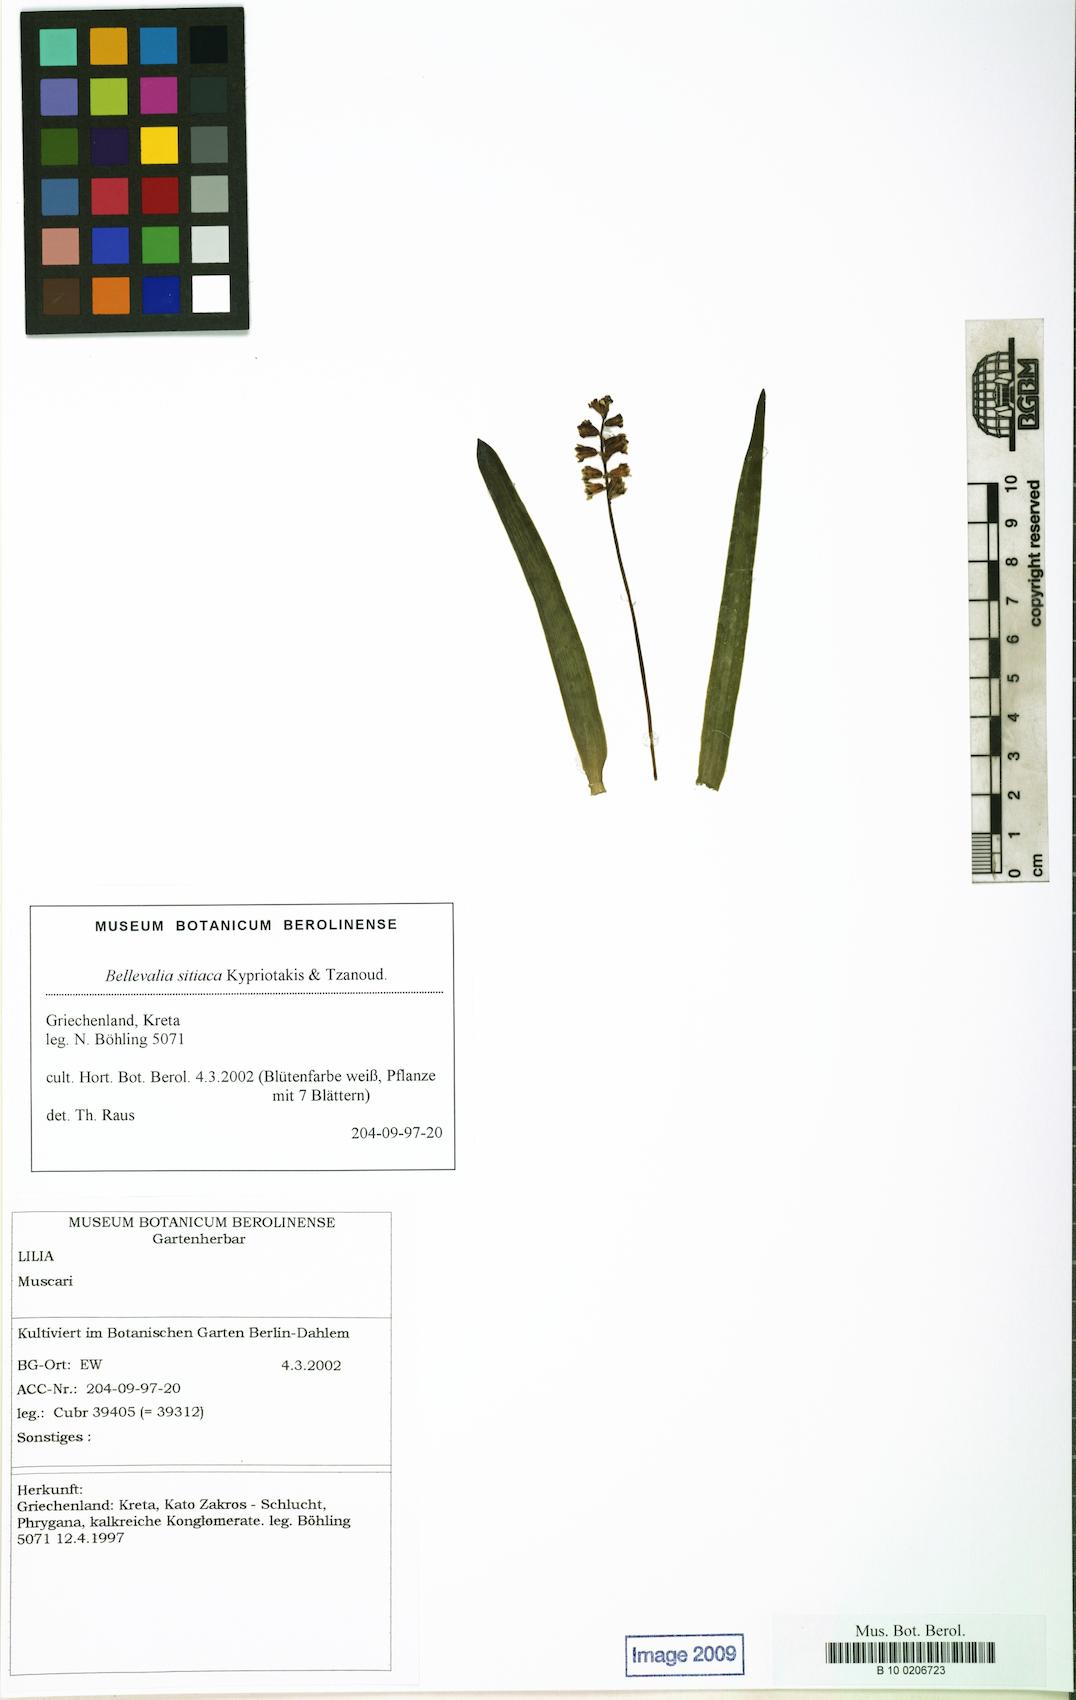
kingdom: Plantae
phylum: Tracheophyta
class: Liliopsida
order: Asparagales
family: Asparagaceae
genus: Bellevalia
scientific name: Bellevalia sitiaca
